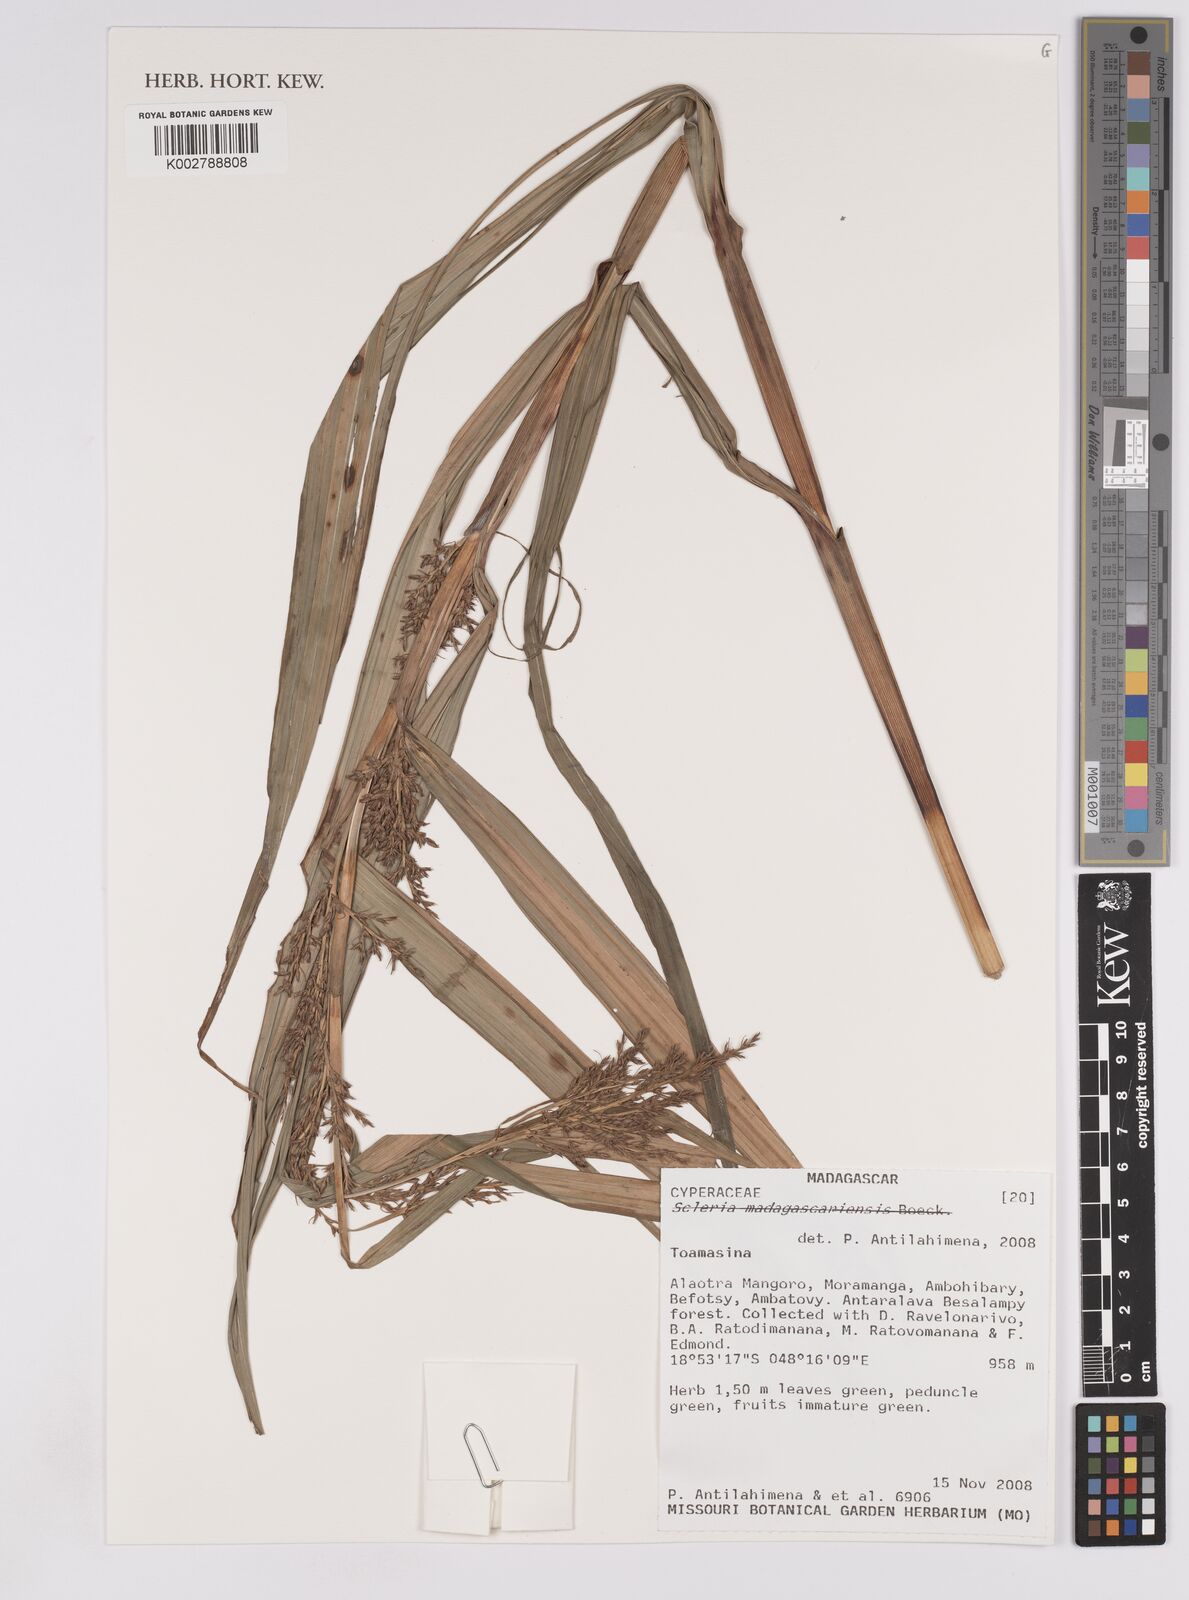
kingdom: Plantae
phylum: Tracheophyta
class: Liliopsida
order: Poales
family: Cyperaceae
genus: Scleria
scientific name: Scleria
